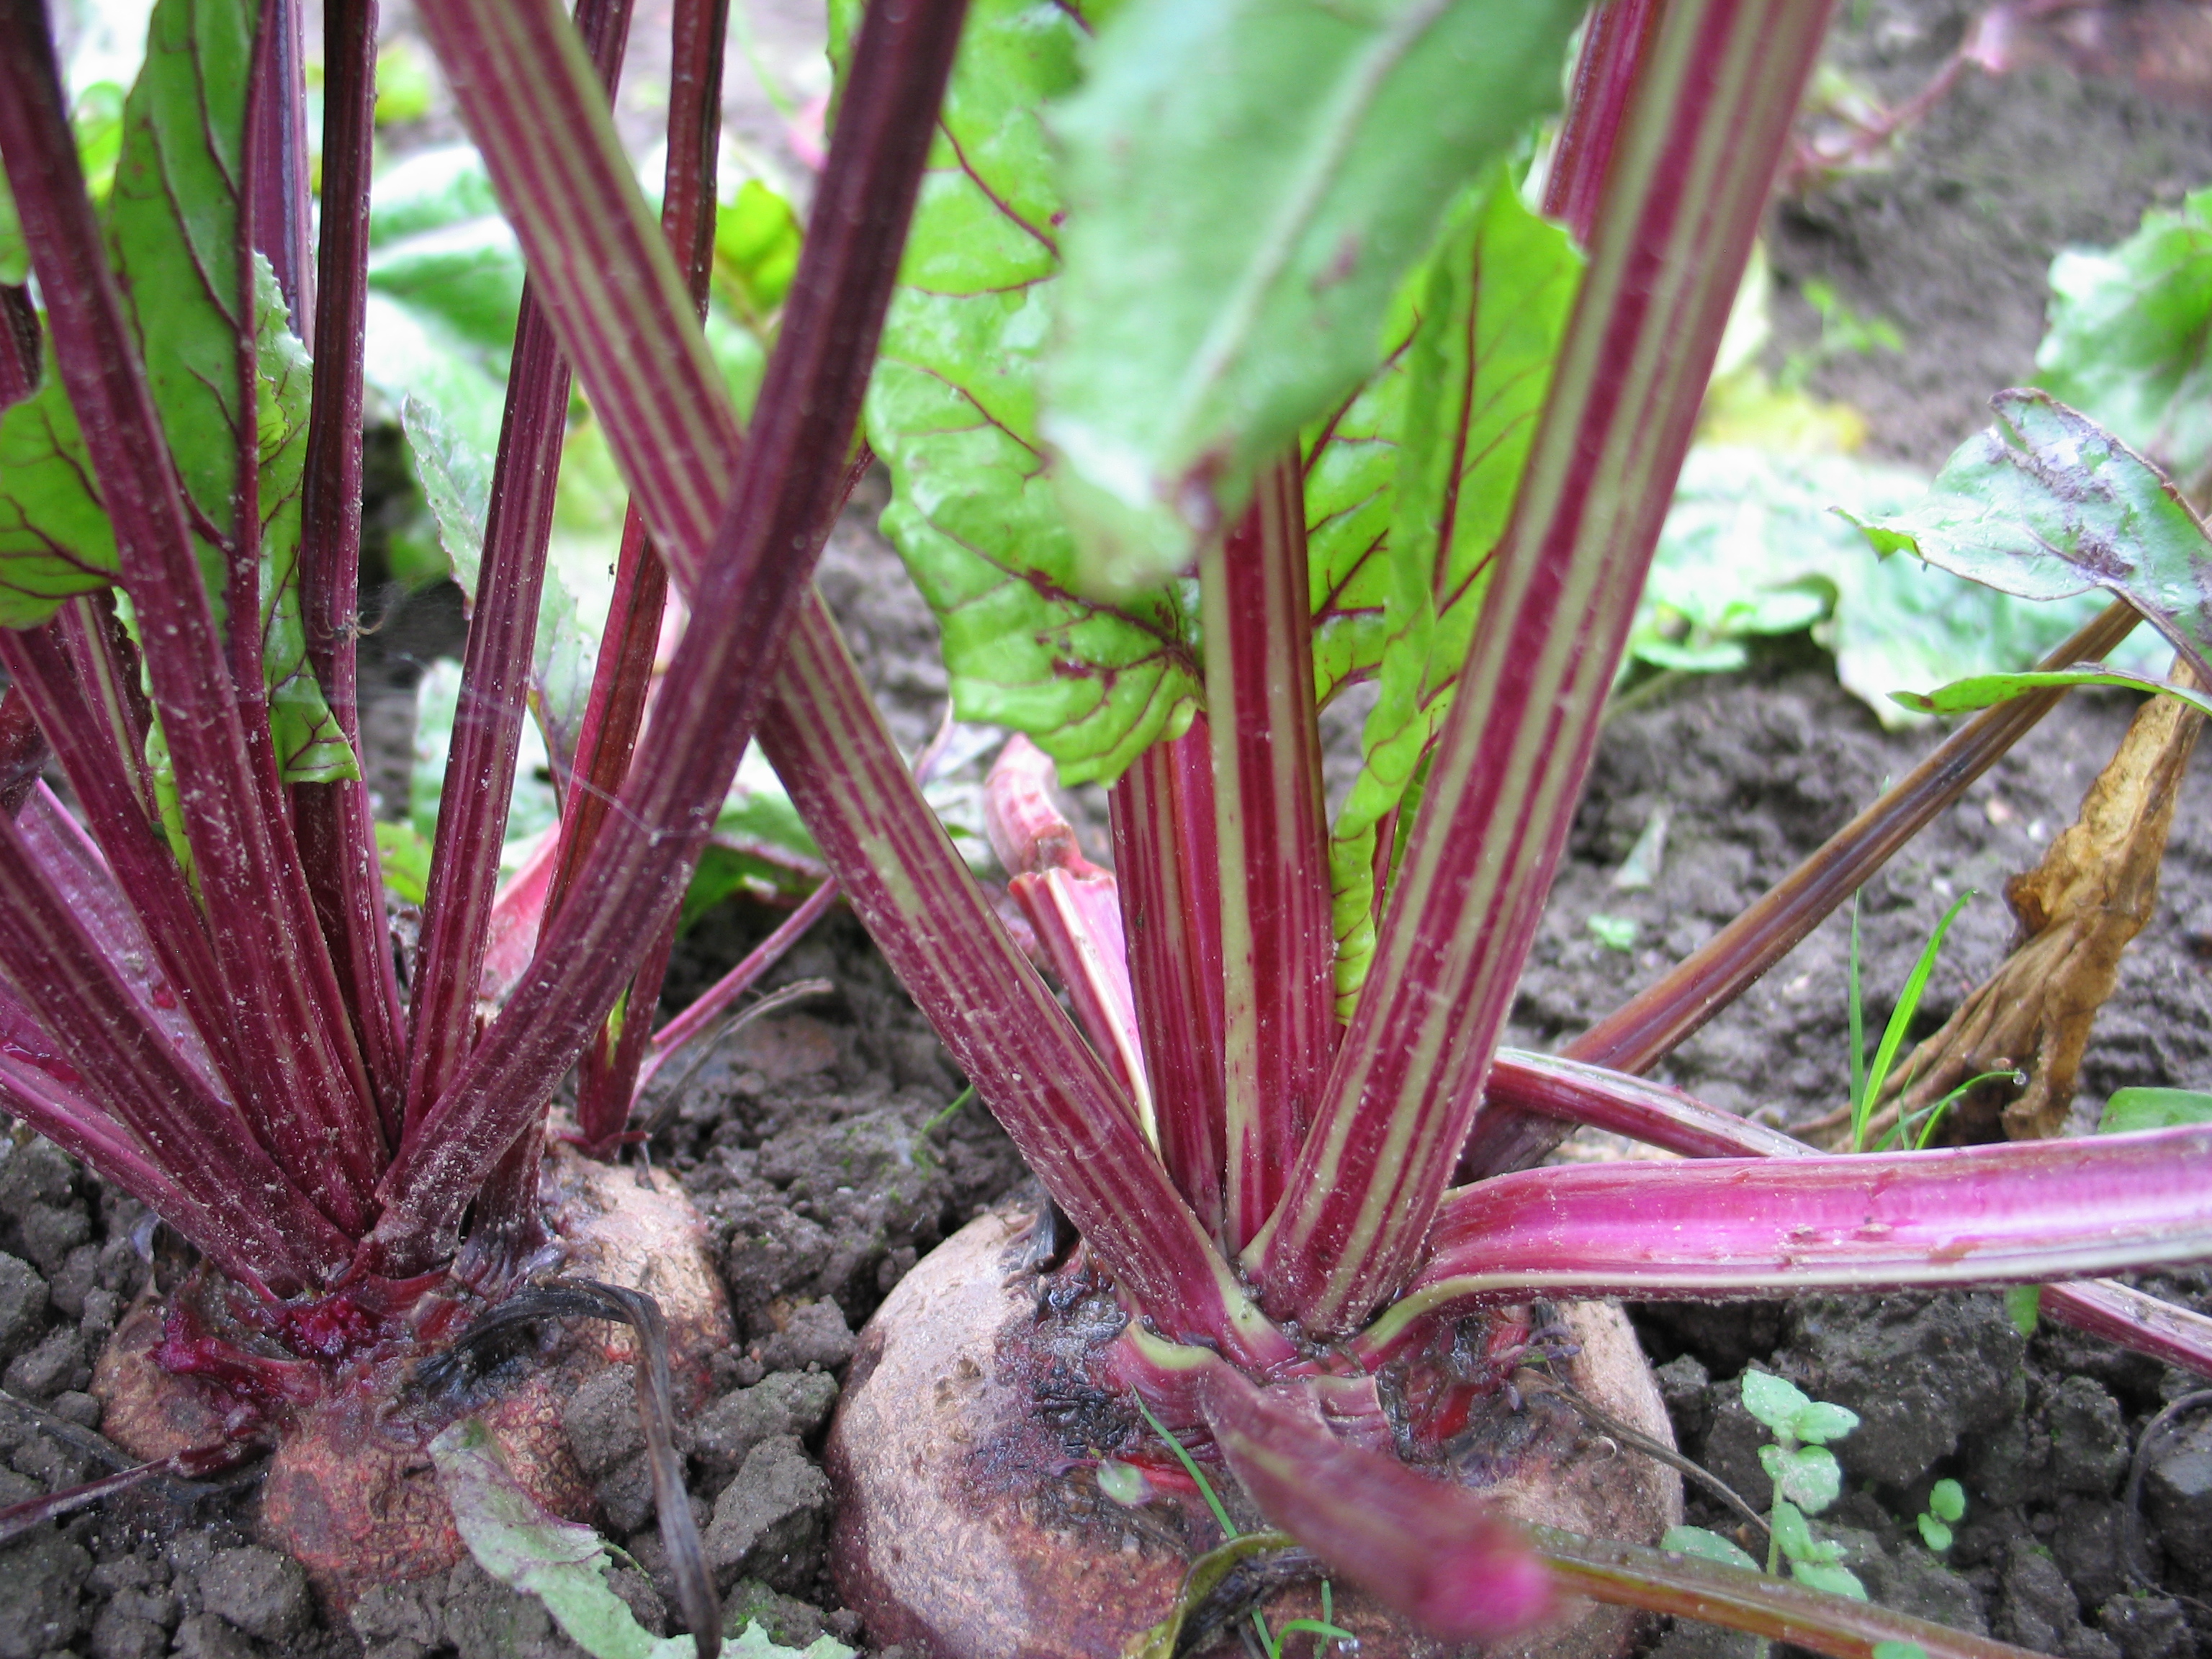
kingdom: Plantae
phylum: Tracheophyta
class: Magnoliopsida
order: Caryophyllales
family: Amaranthaceae
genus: Beta
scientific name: Beta vulgaris
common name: Beet
